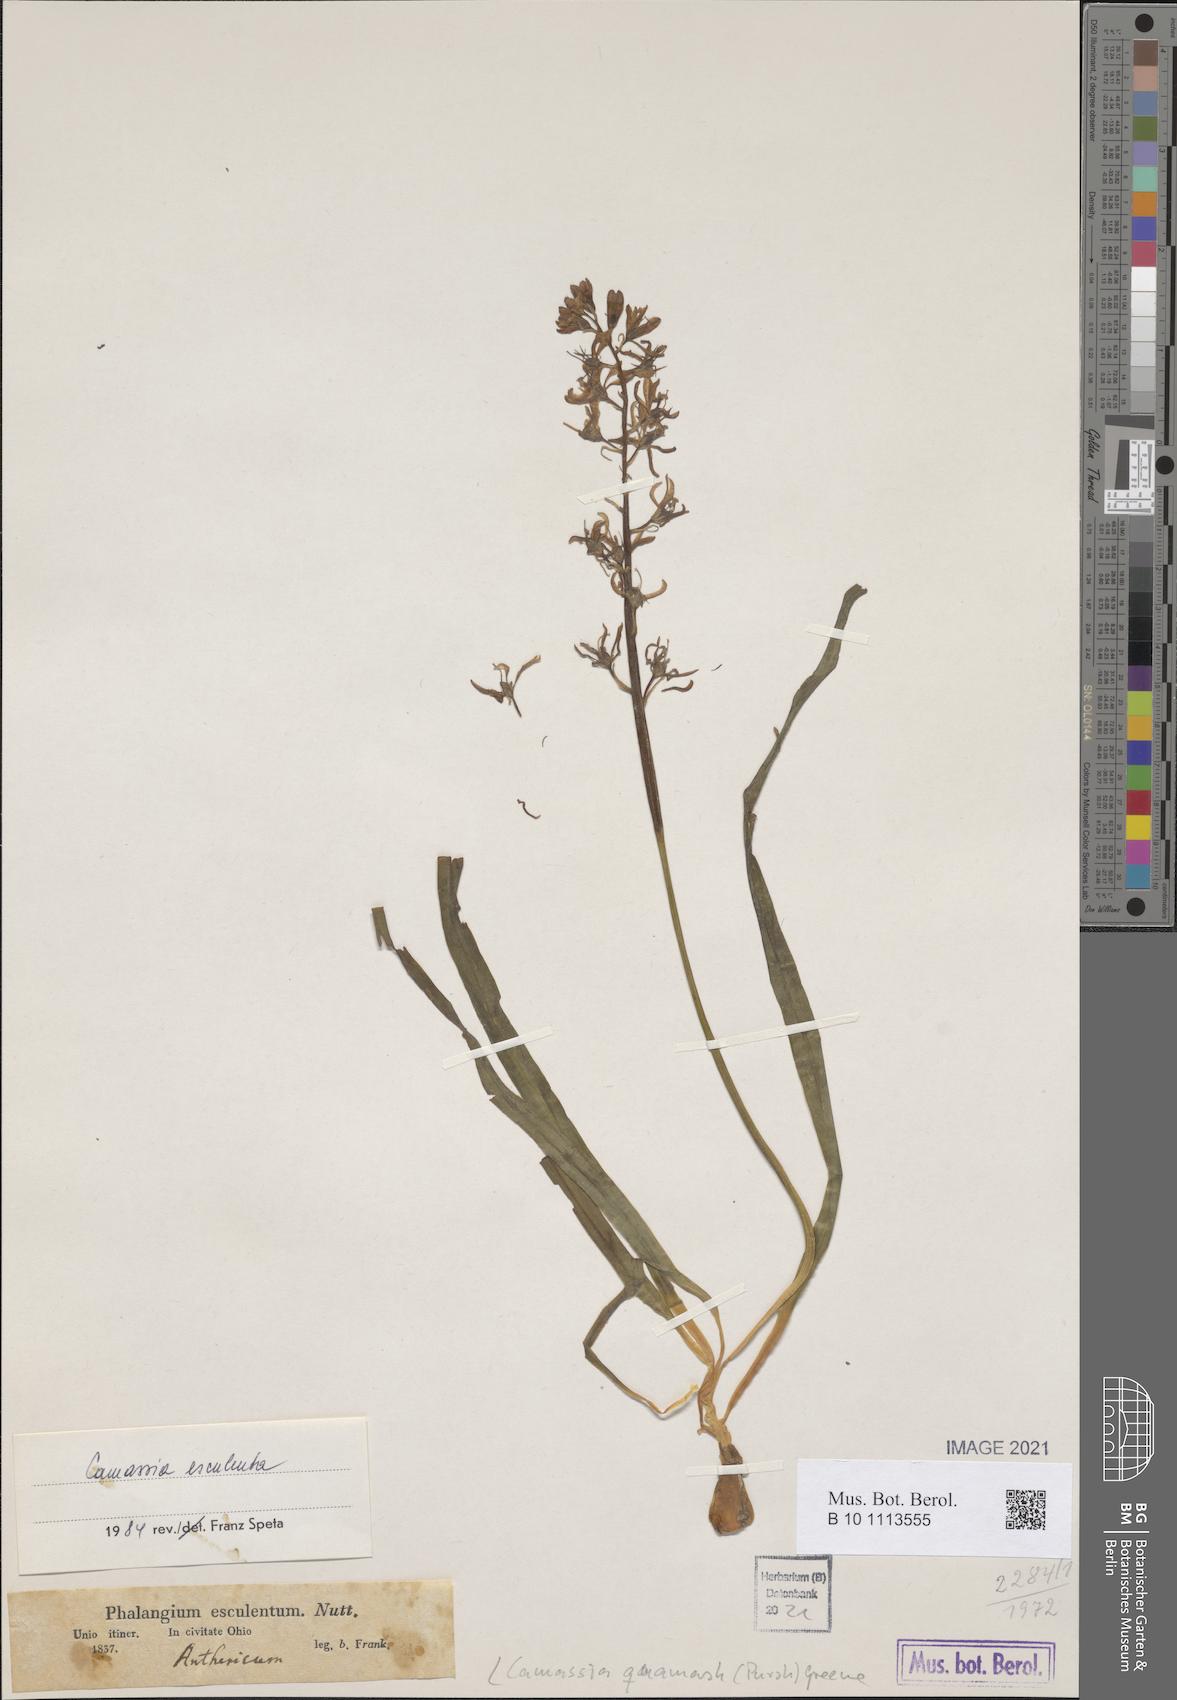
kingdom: Plantae
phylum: Tracheophyta
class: Liliopsida
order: Asparagales
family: Asparagaceae
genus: Camassia
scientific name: Camassia quamash
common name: Common camas
